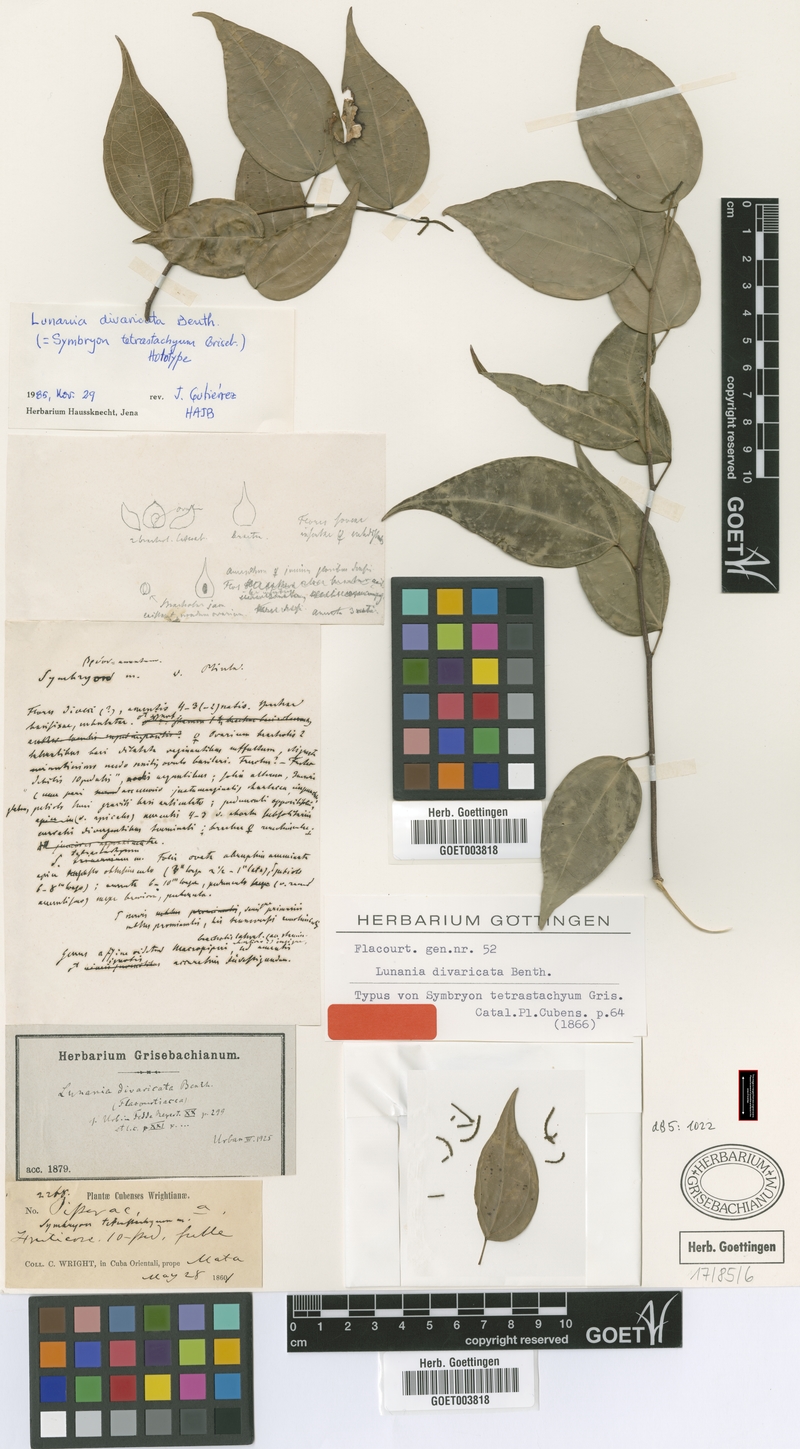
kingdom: Plantae
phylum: Tracheophyta
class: Magnoliopsida
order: Malpighiales
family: Salicaceae
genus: Lunania
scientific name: Lunania divaricata
